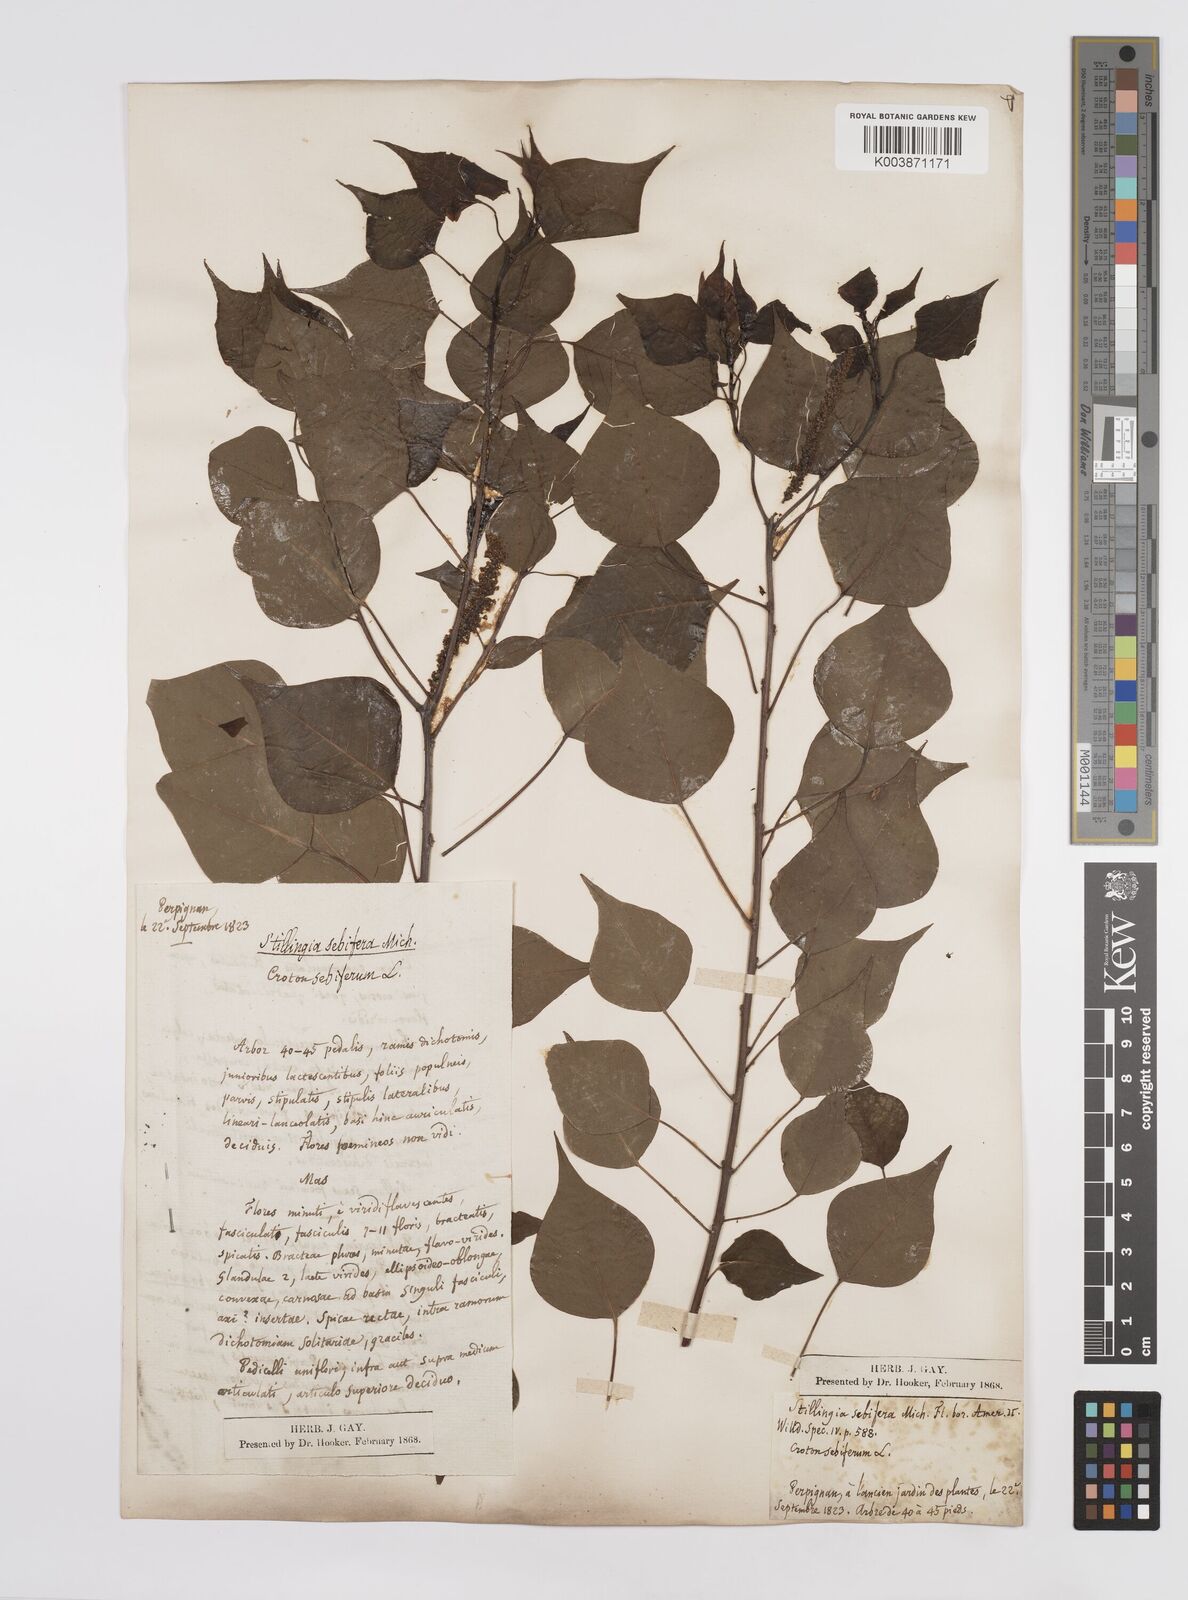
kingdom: Plantae
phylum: Tracheophyta
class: Magnoliopsida
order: Malpighiales
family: Euphorbiaceae
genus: Triadica
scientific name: Triadica sebifera
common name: Chinese tallow
